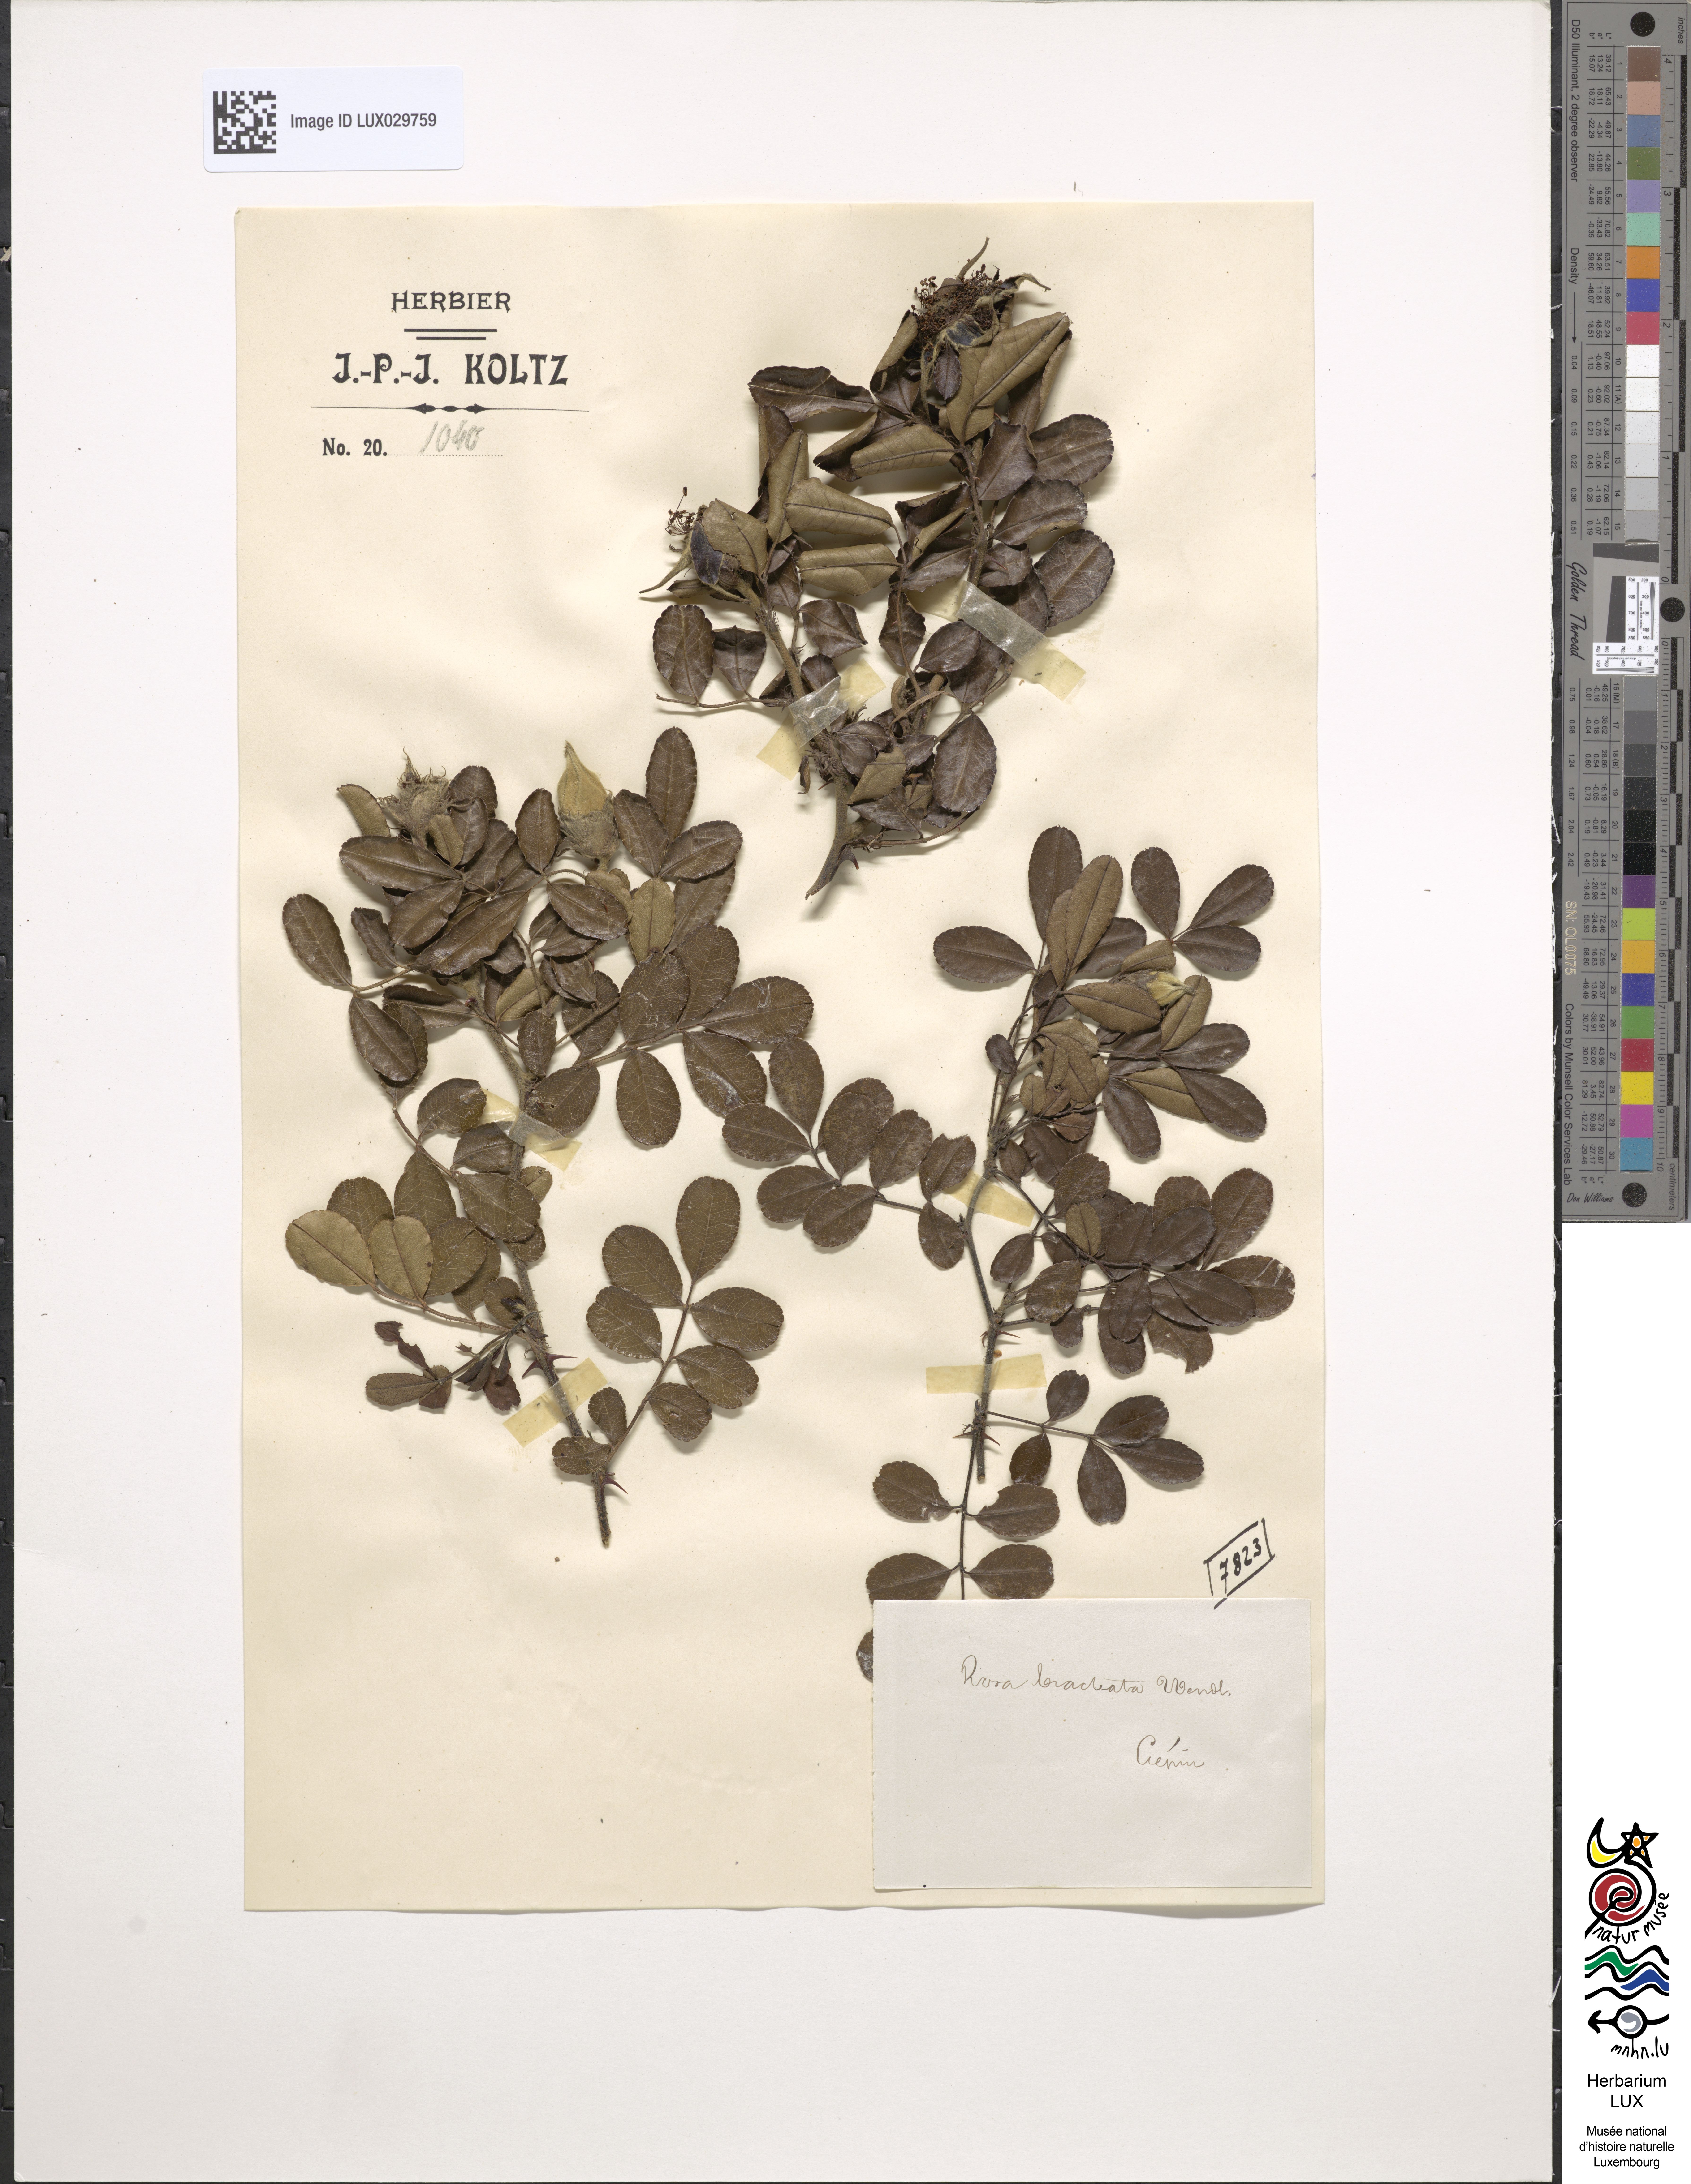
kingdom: Plantae
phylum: Tracheophyta
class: Magnoliopsida
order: Rosales
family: Rosaceae
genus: Rosa
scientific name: Rosa bracteata
